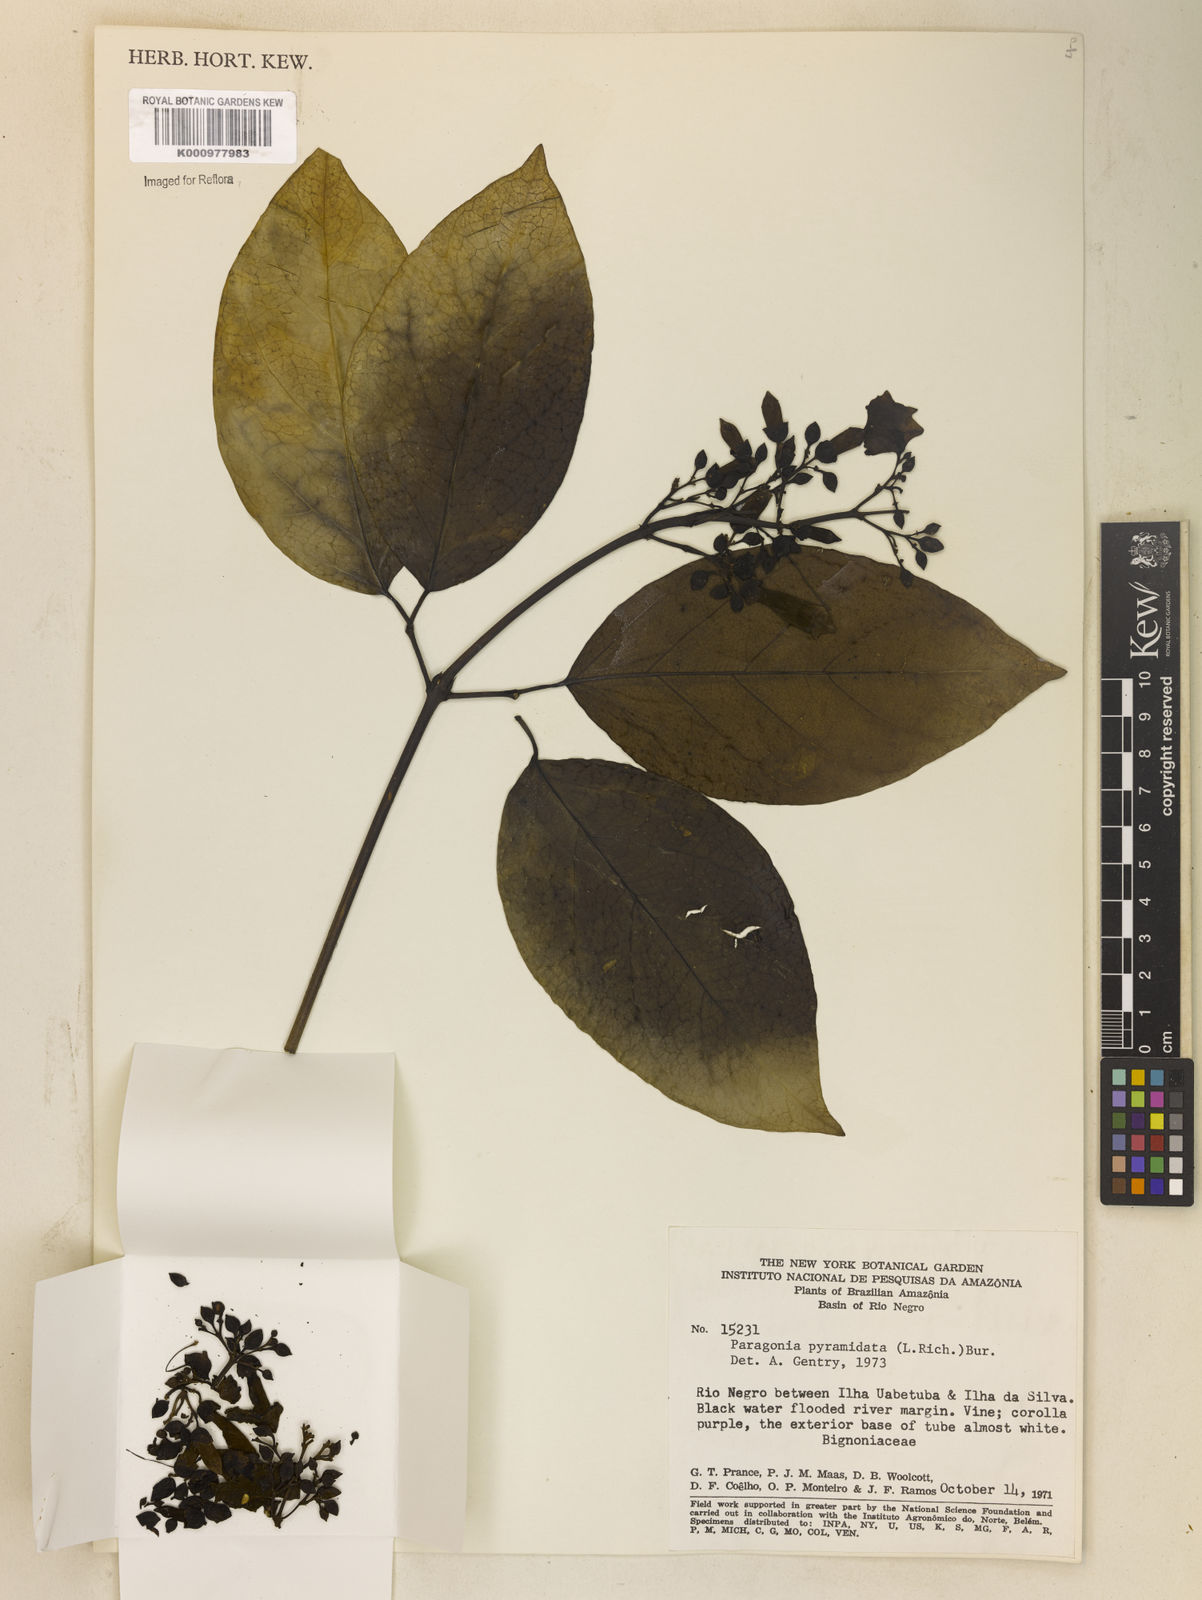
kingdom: Plantae
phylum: Tracheophyta
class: Magnoliopsida
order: Lamiales
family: Bignoniaceae
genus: Tanaecium
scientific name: Tanaecium pyramidatum
